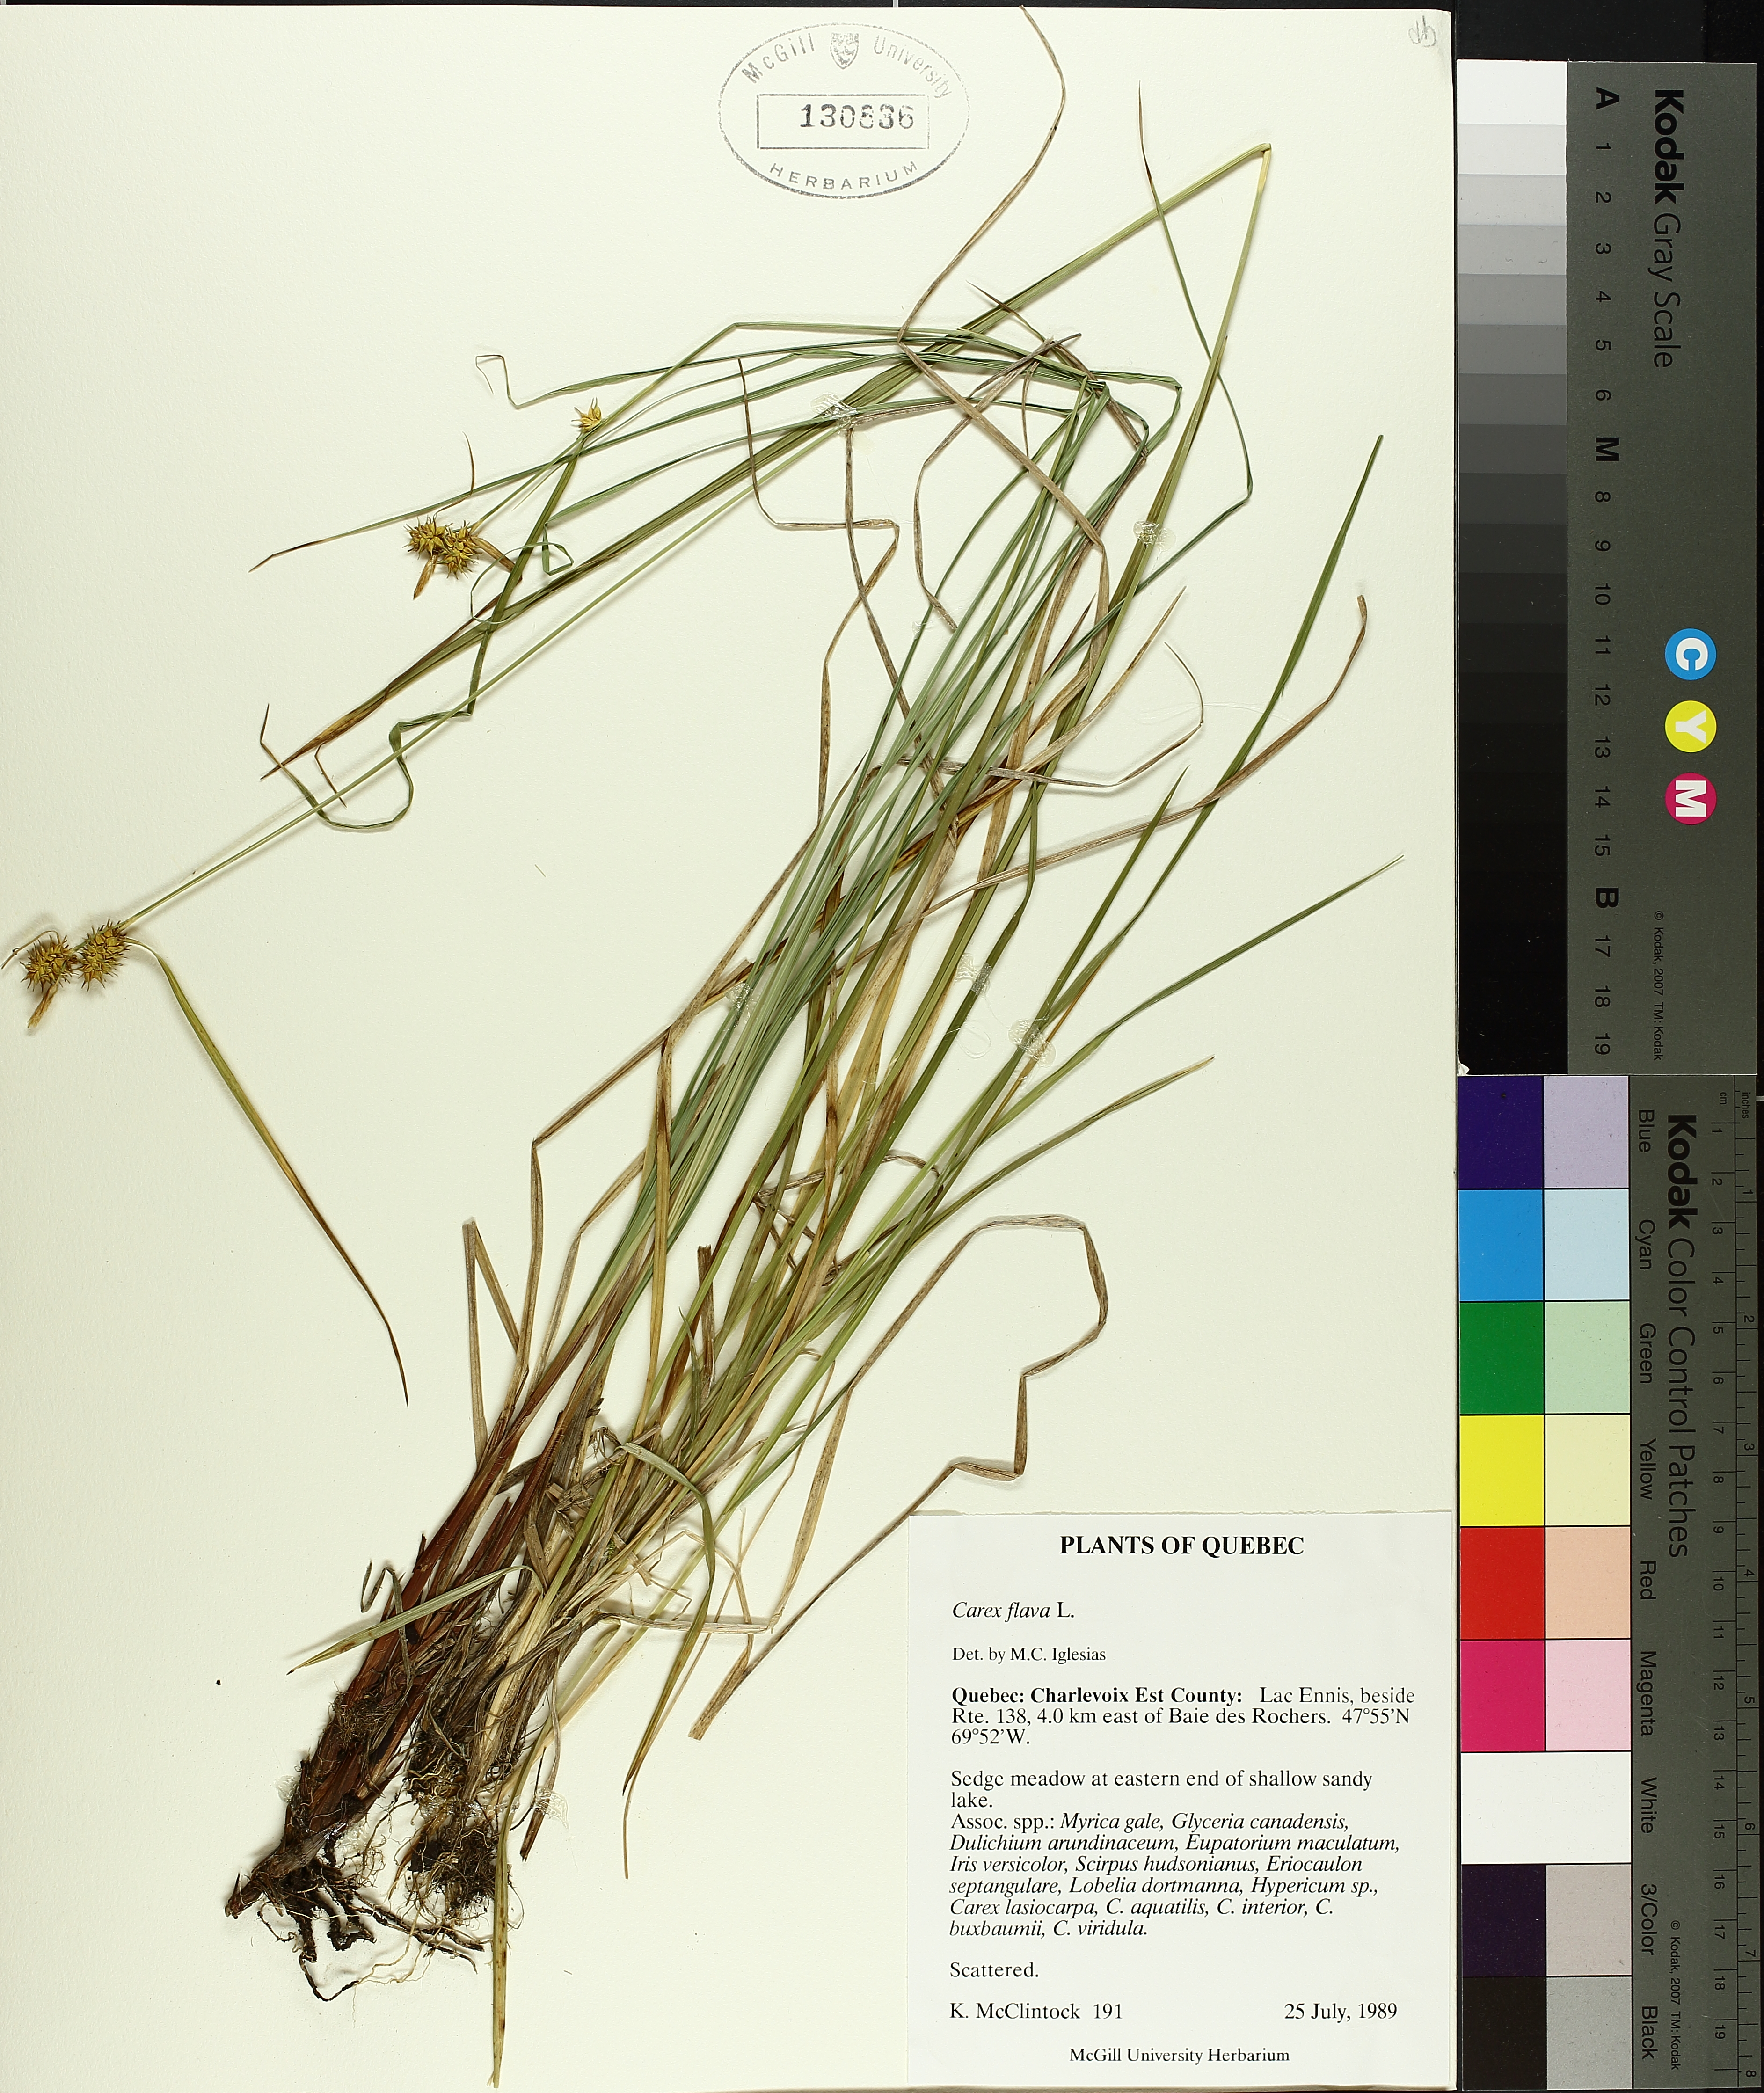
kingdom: Plantae
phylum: Tracheophyta
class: Liliopsida
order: Poales
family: Cyperaceae
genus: Carex
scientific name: Carex flava
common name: Large yellow-sedge
